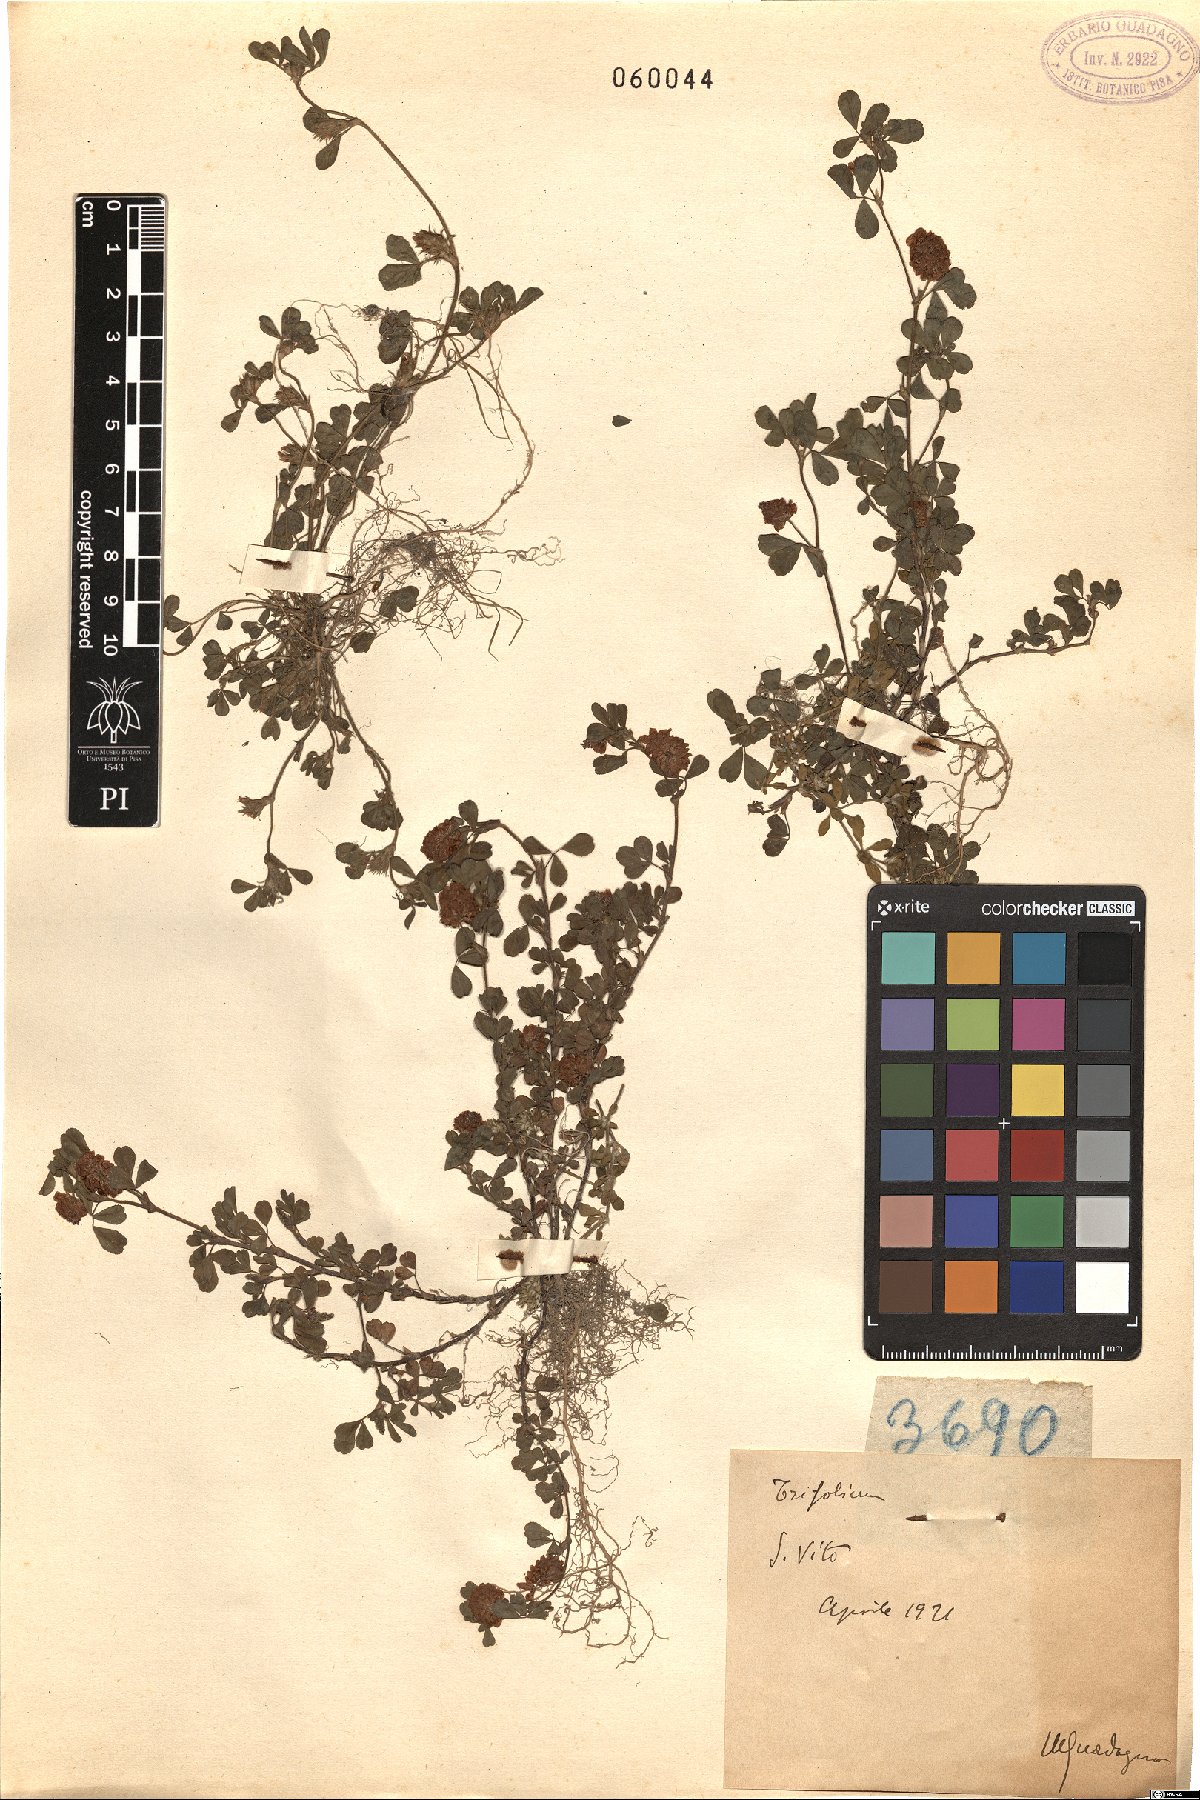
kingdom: Plantae
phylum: Tracheophyta
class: Magnoliopsida
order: Fabales
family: Fabaceae
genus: Trifolium
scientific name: Trifolium
